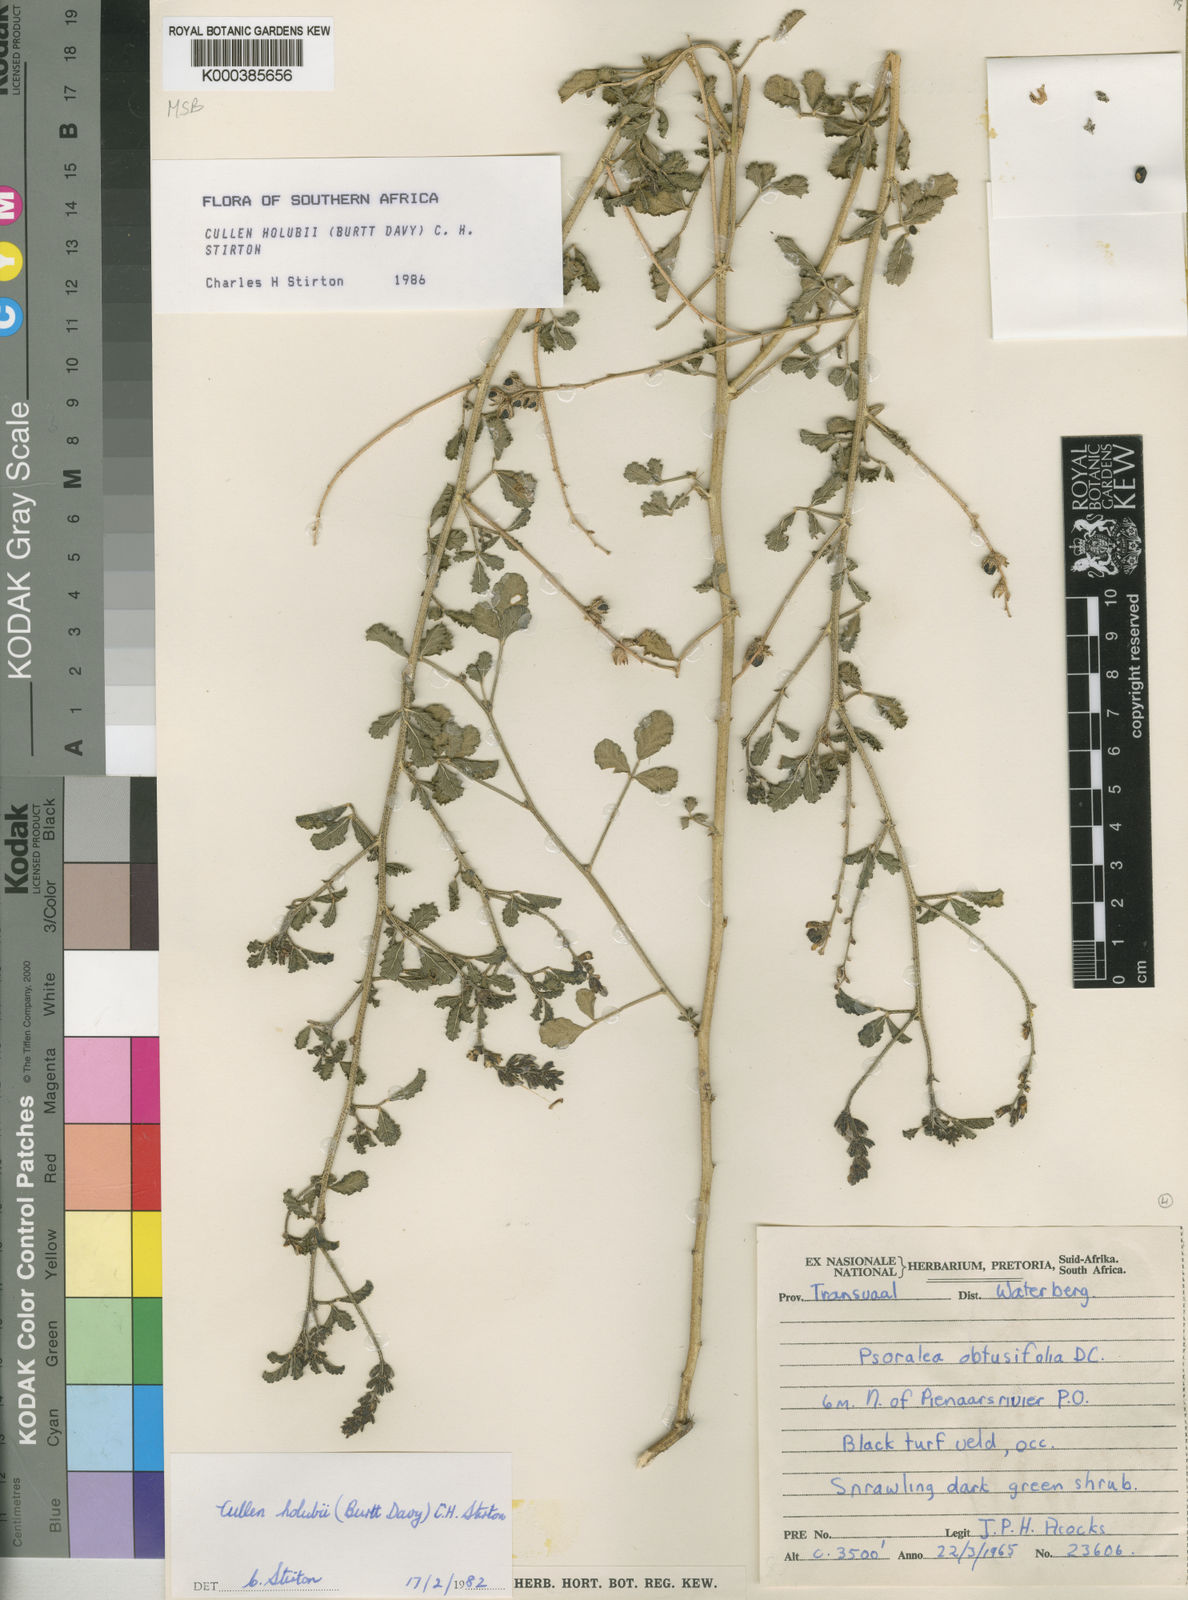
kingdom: Plantae
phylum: Tracheophyta
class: Magnoliopsida
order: Fabales
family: Fabaceae
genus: Cullen
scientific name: Cullen tomentosum
